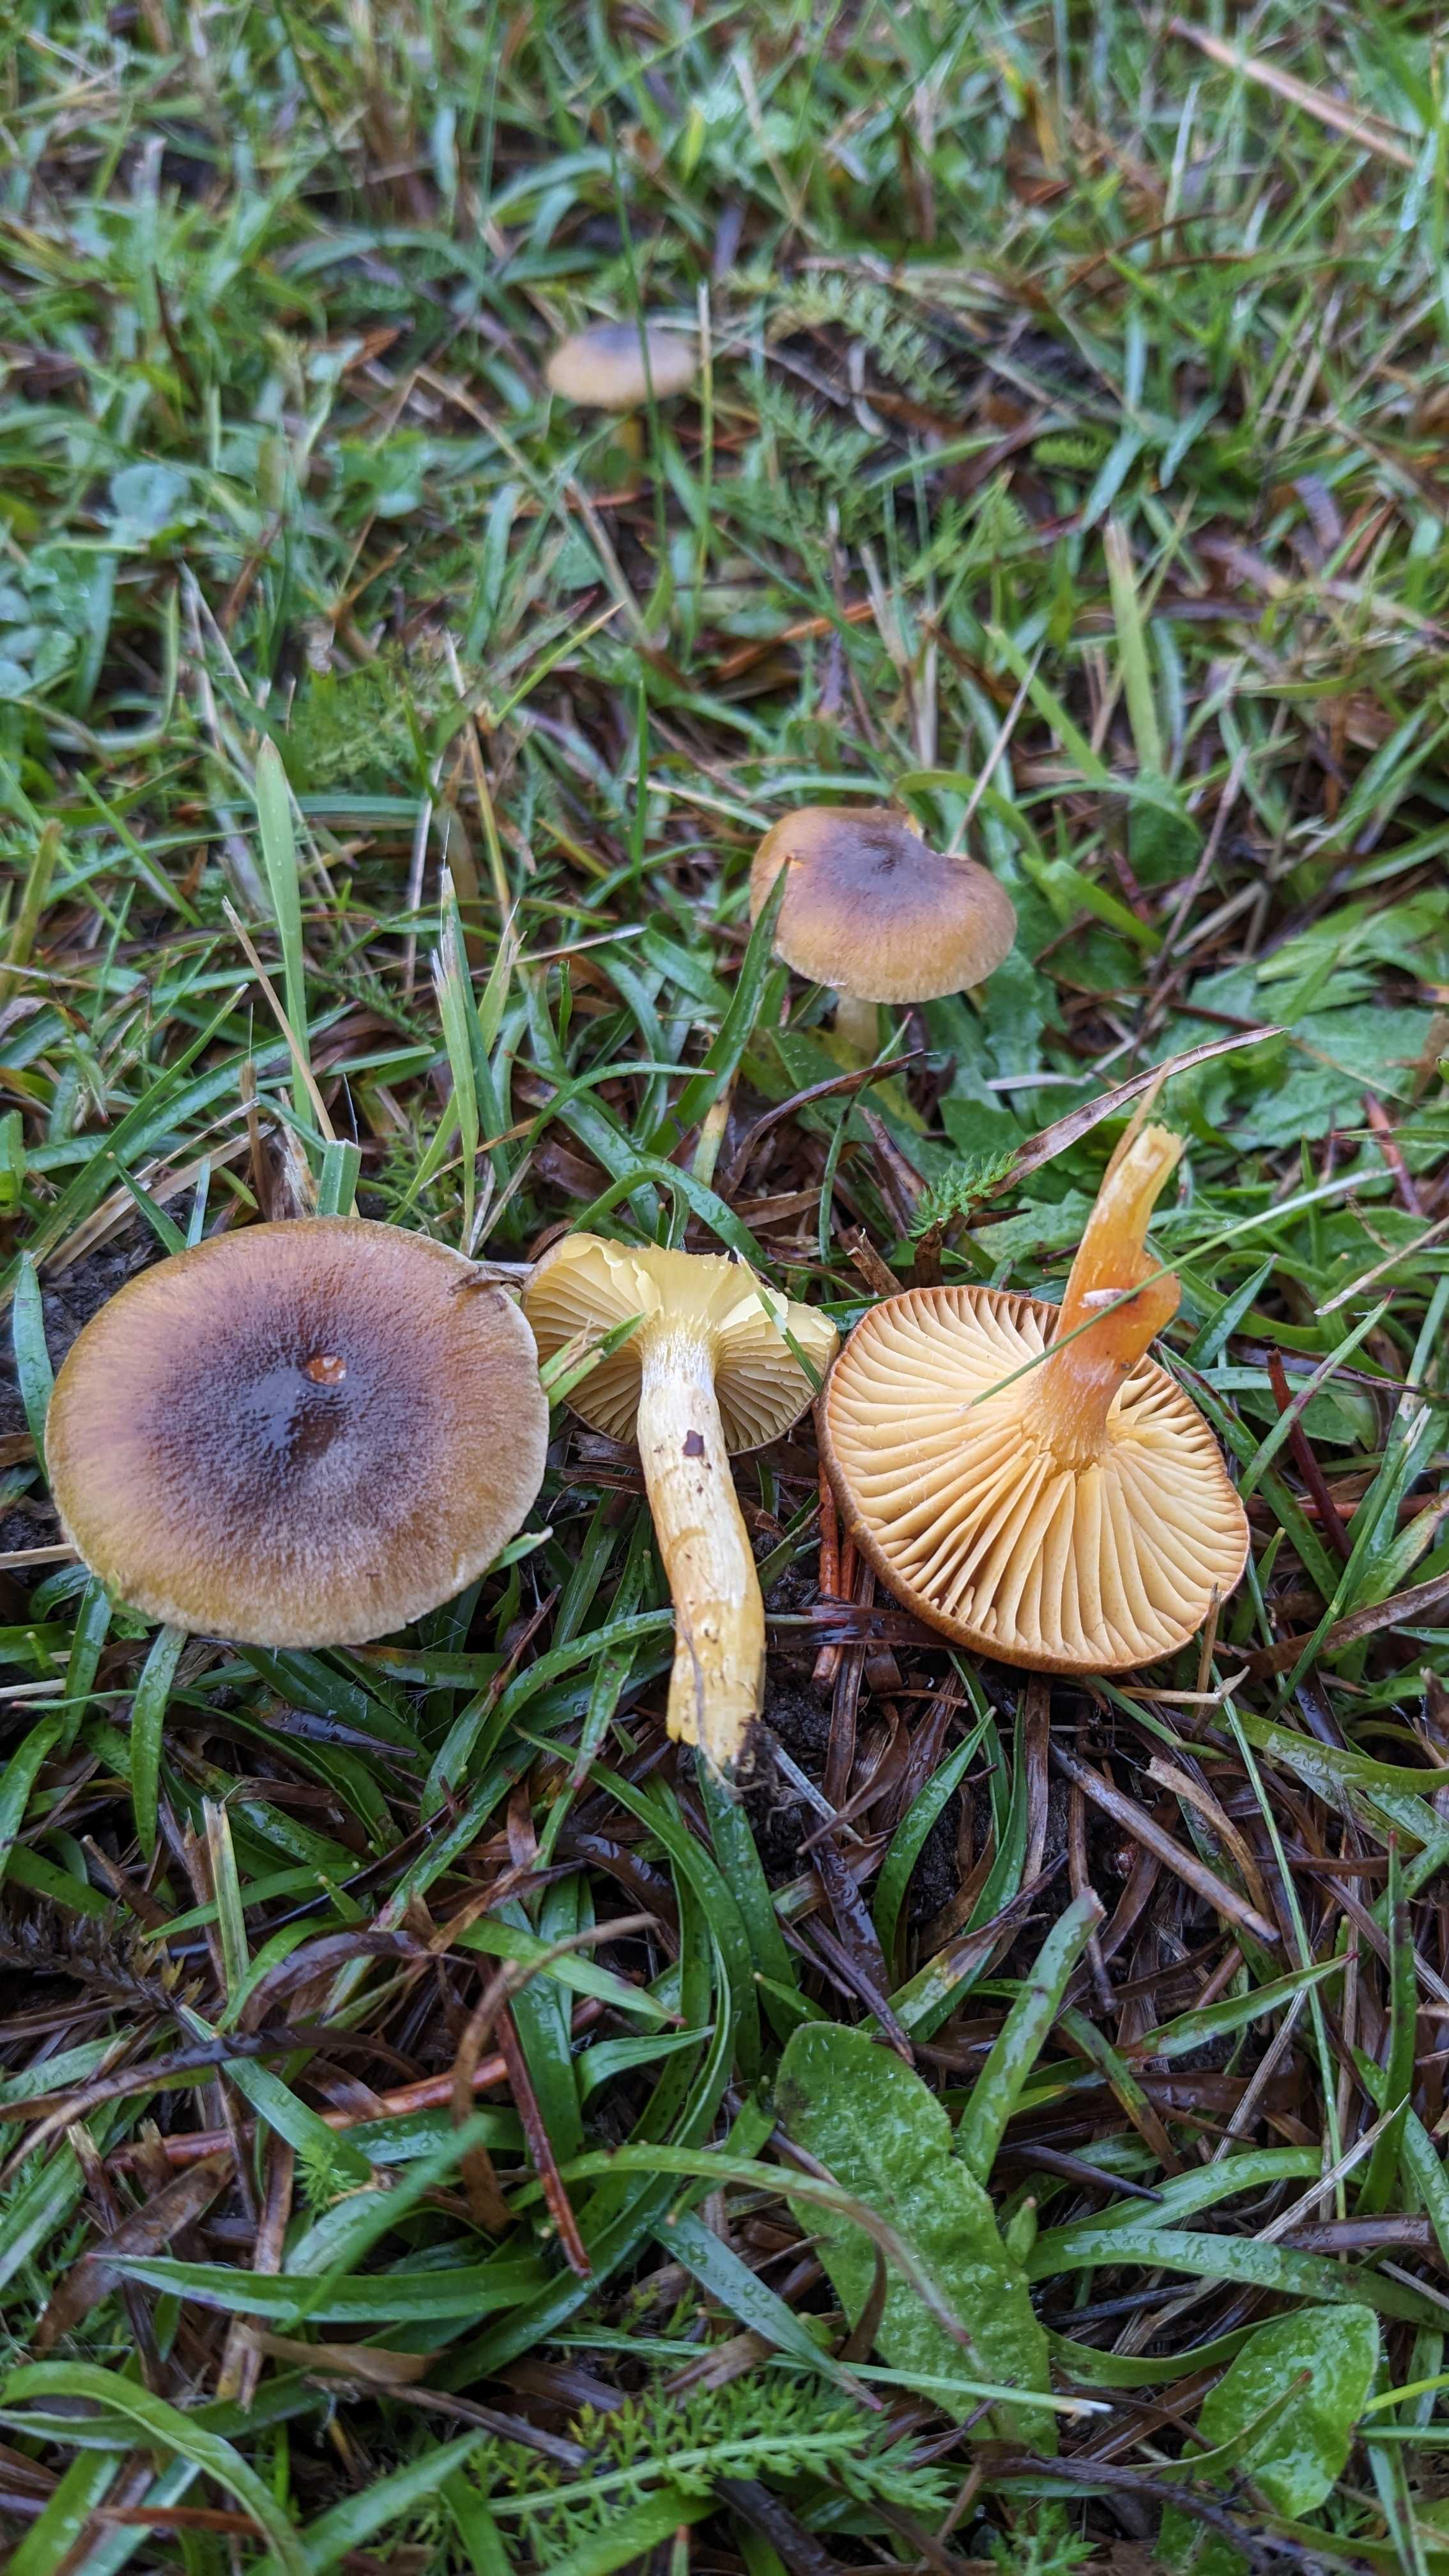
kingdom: Fungi
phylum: Basidiomycota
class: Agaricomycetes
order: Agaricales
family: Hygrophoraceae
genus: Hygrophorus
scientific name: Hygrophorus hypothejus
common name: frost-sneglehat
